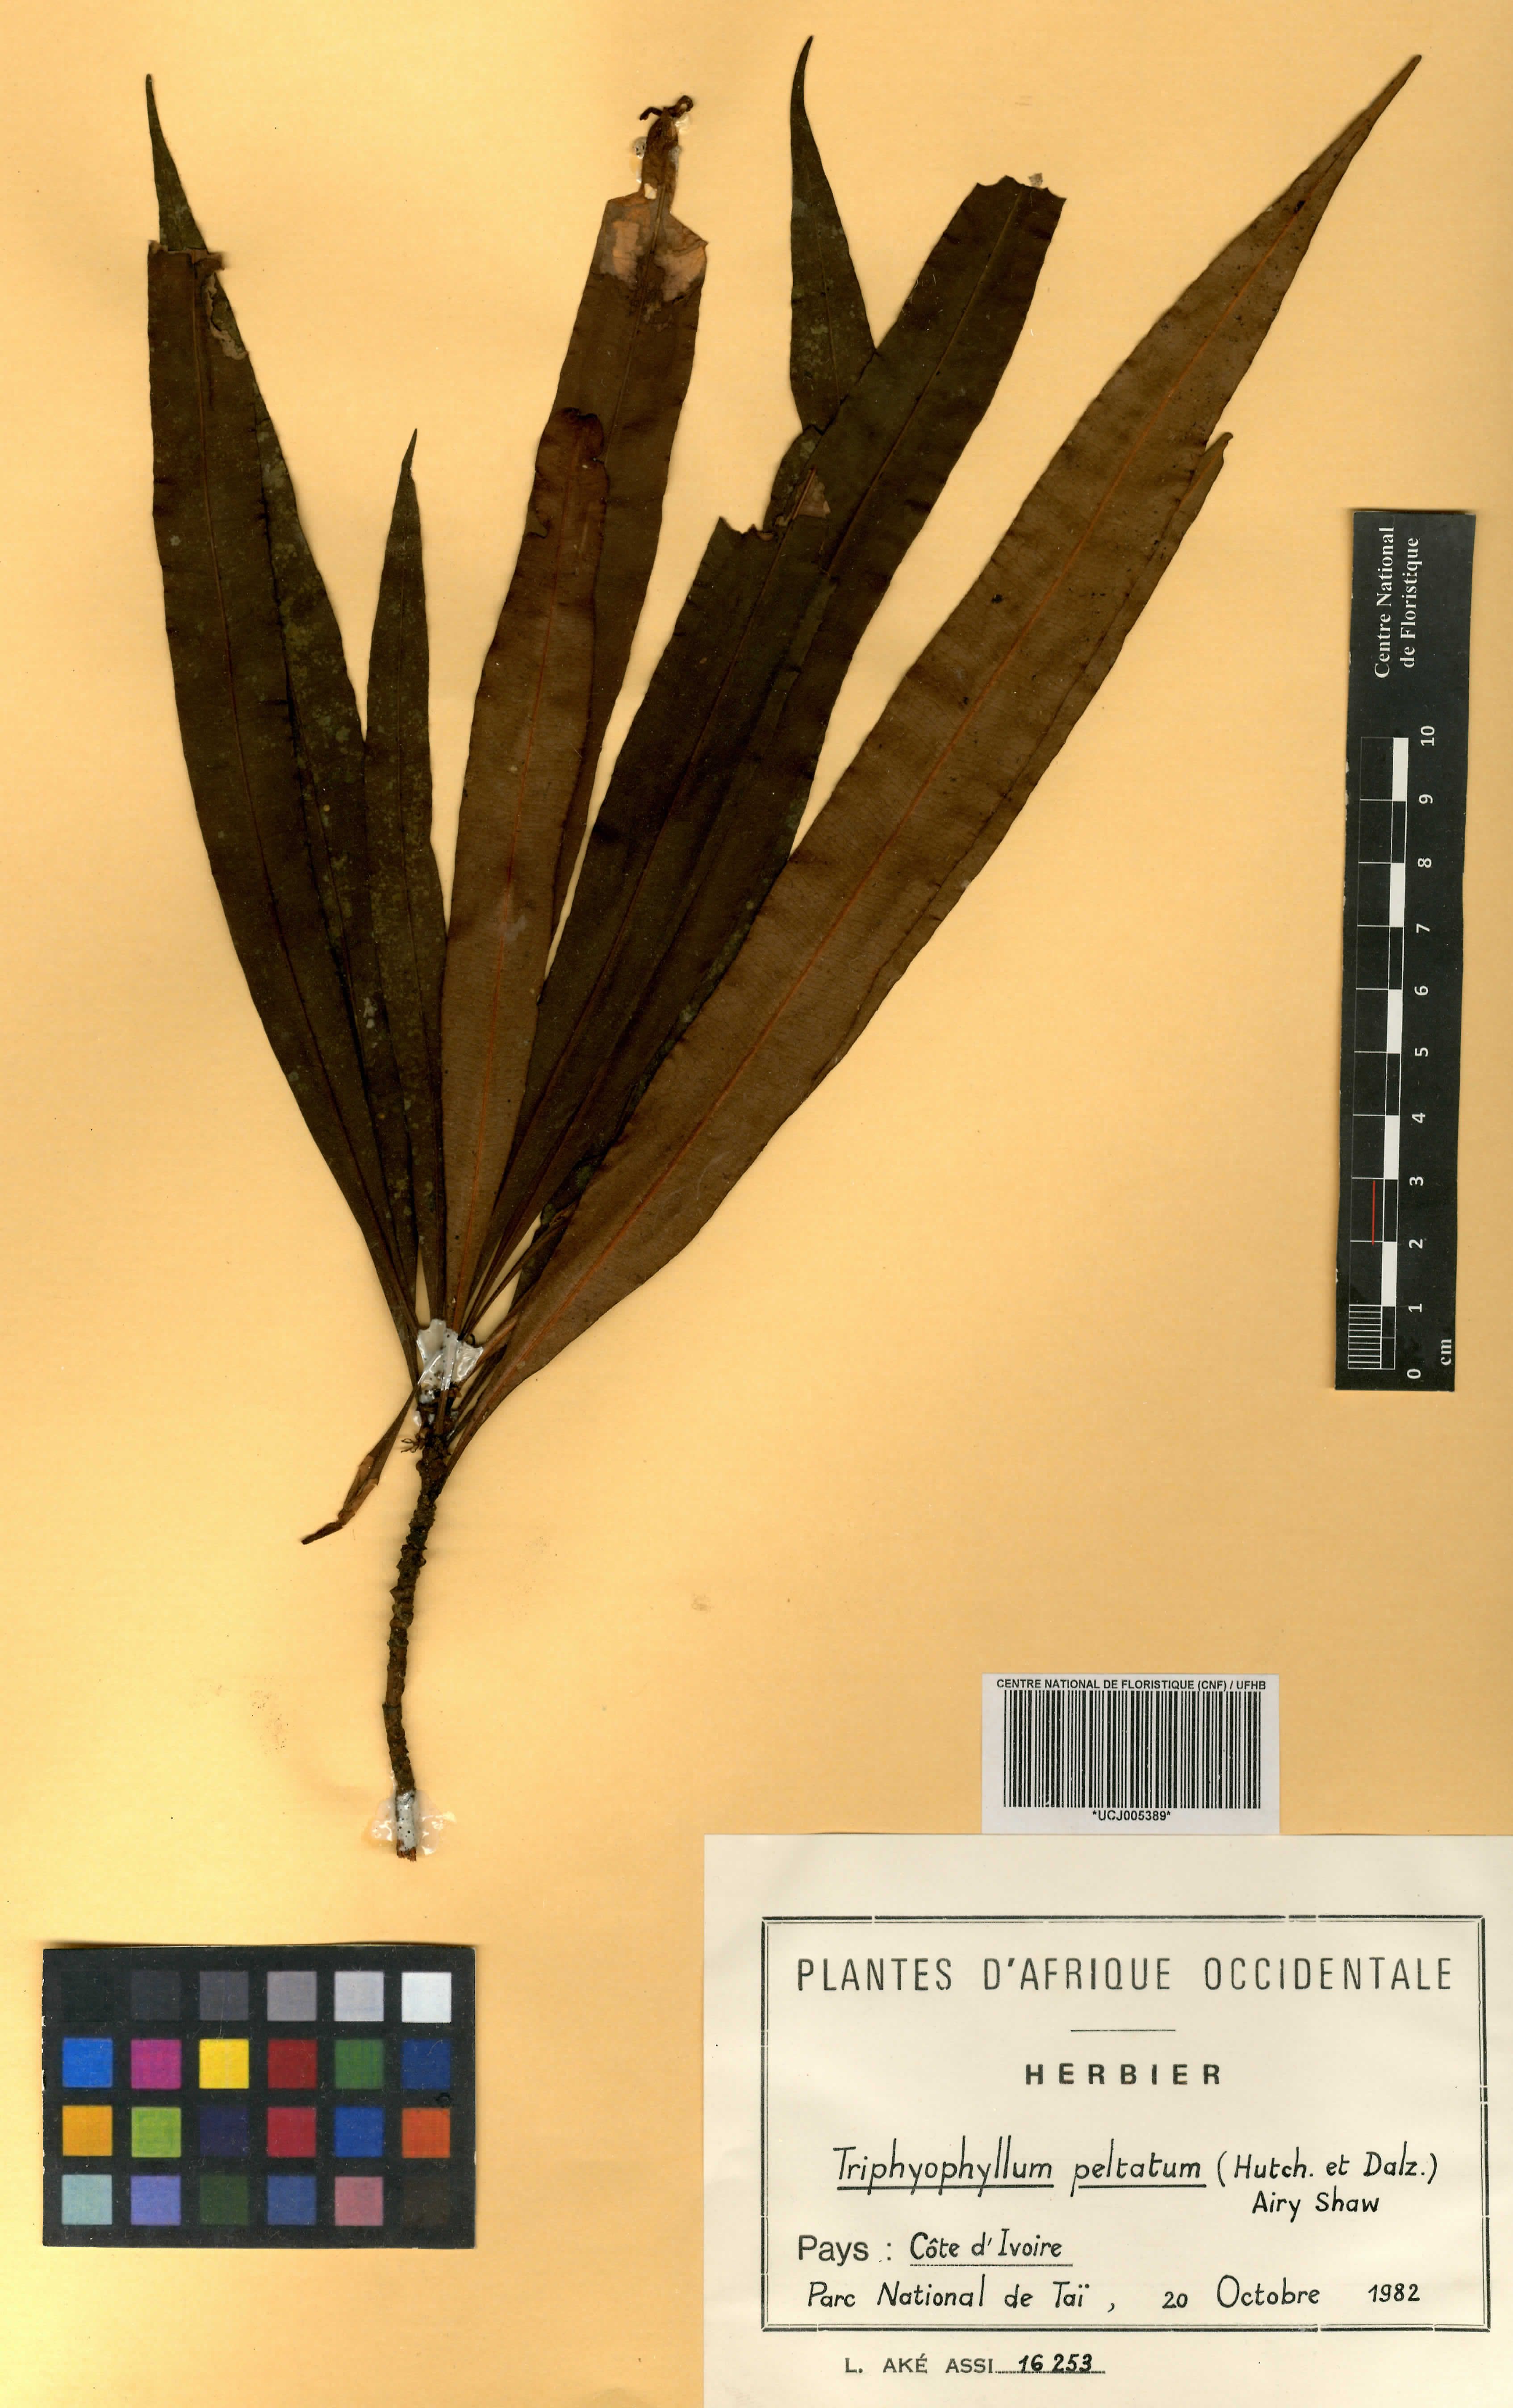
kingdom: Plantae
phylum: Tracheophyta
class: Magnoliopsida
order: Caryophyllales
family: Dioncophyllaceae
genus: Triphyophyllum
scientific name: Triphyophyllum peltatum
